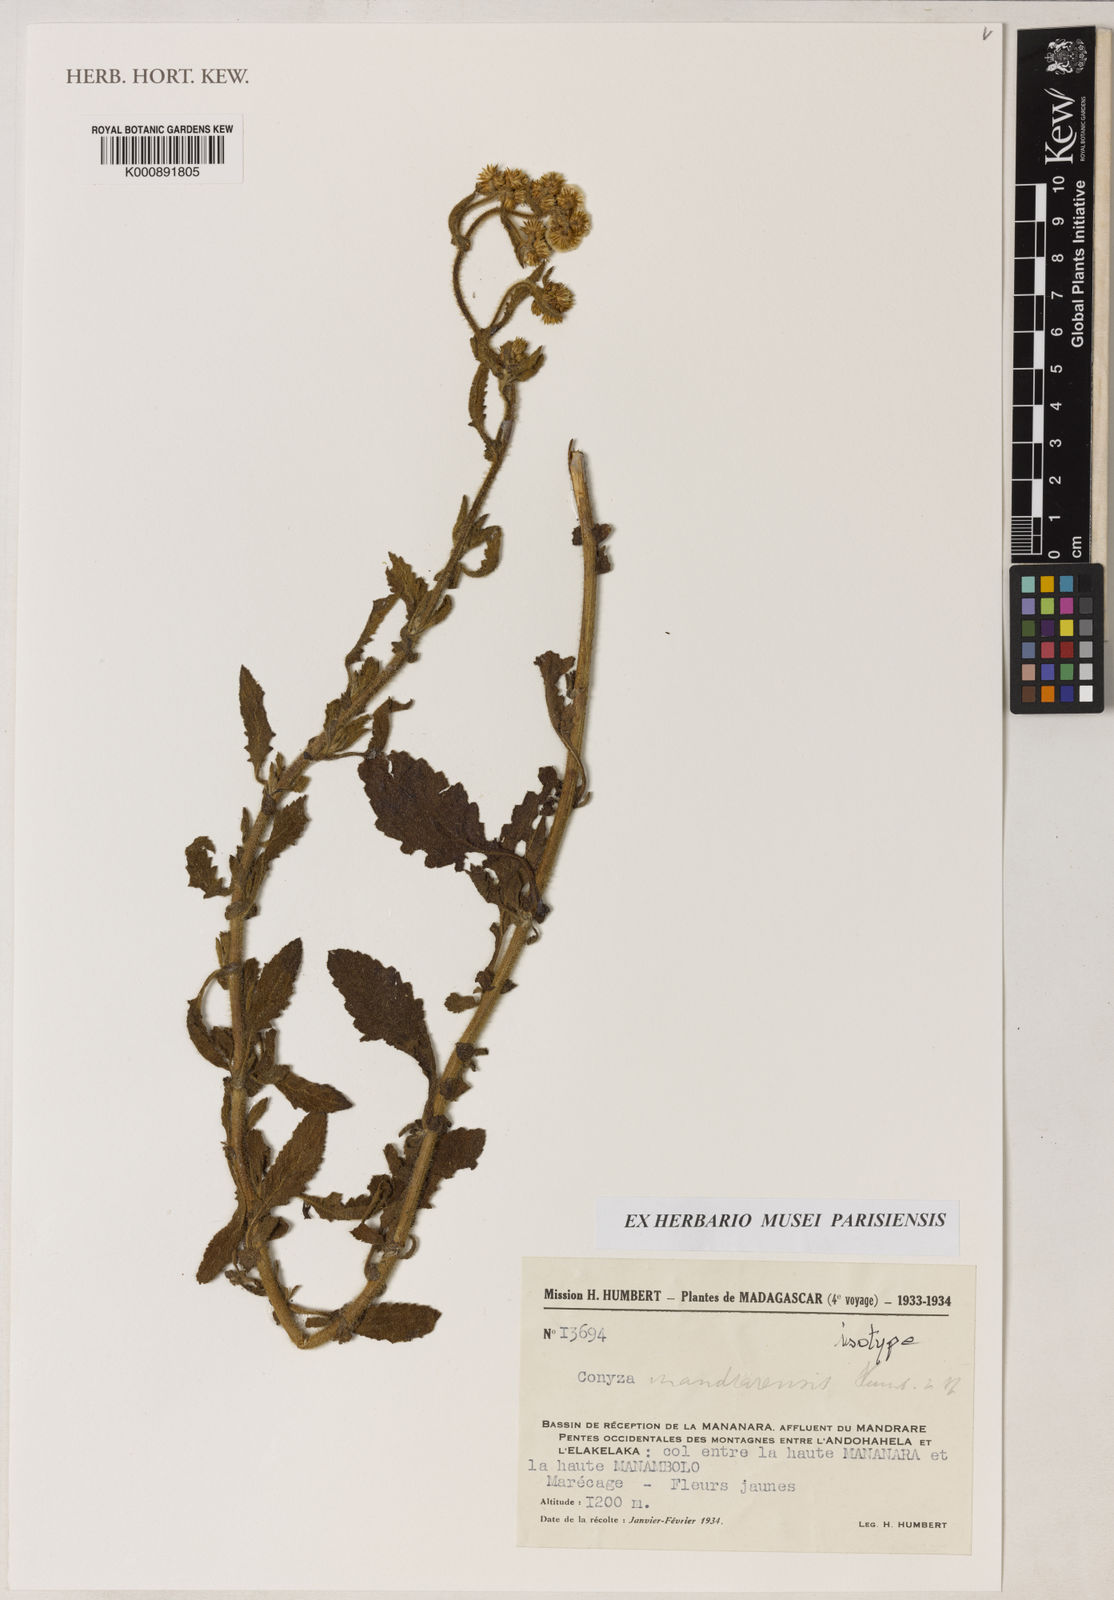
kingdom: Plantae
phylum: Tracheophyta
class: Magnoliopsida
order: Asterales
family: Asteraceae
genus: Conyza
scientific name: Conyza mandrarensis
